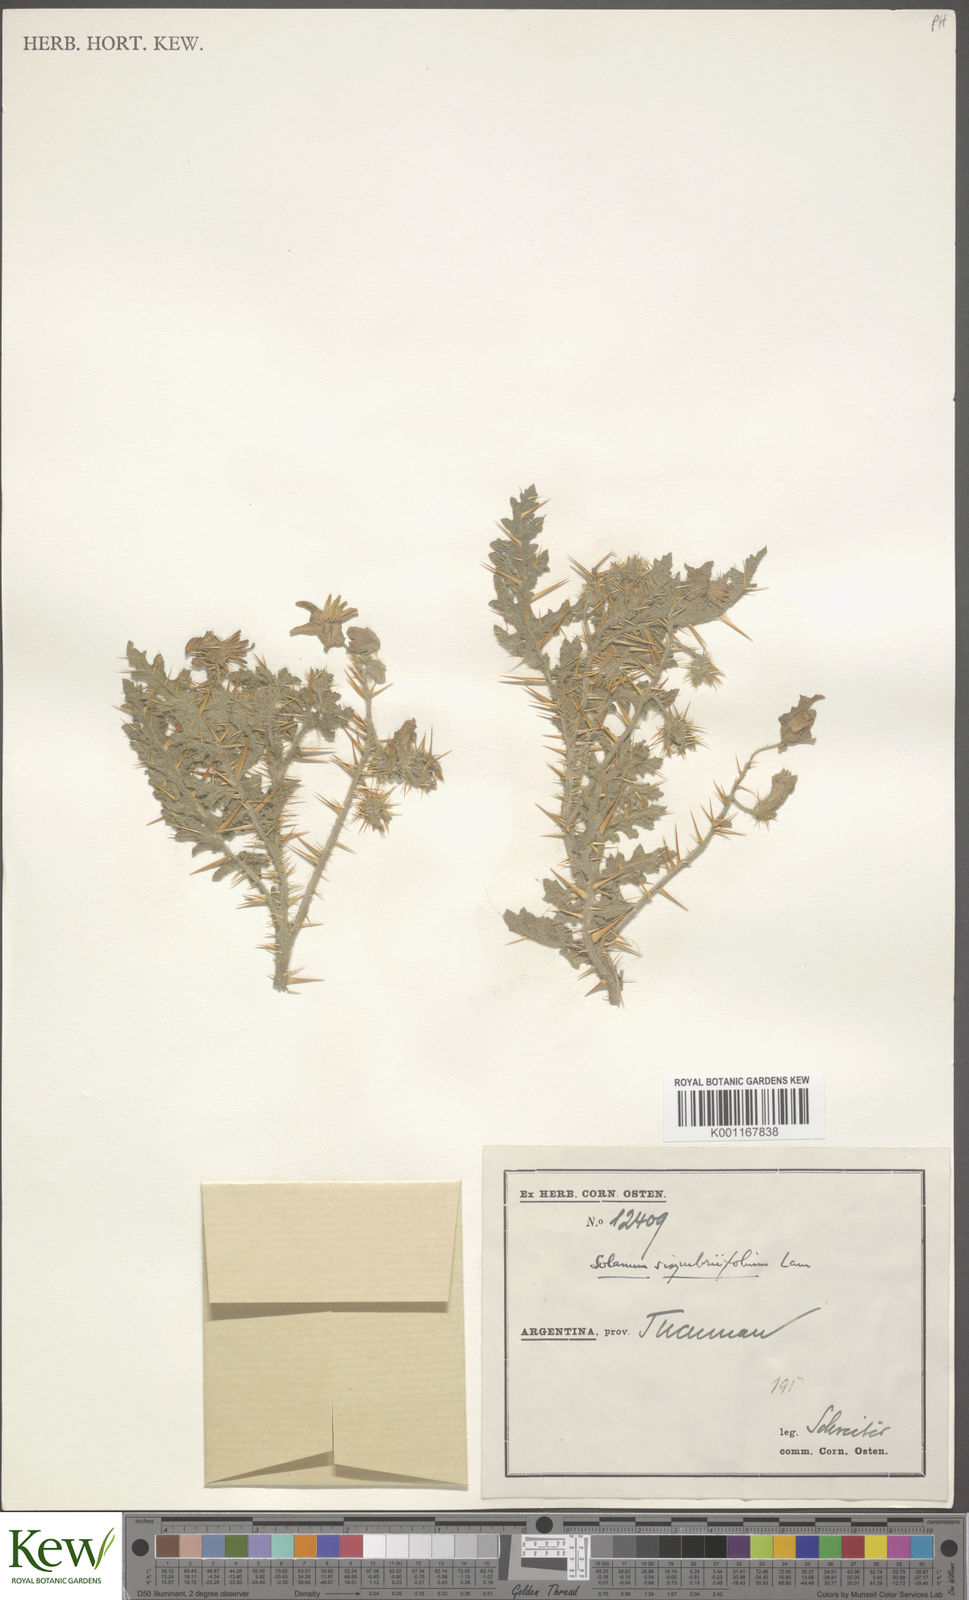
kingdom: Plantae
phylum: Tracheophyta
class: Magnoliopsida
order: Solanales
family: Solanaceae
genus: Solanum
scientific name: Solanum sisymbriifolium
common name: Red buffalo-bur
